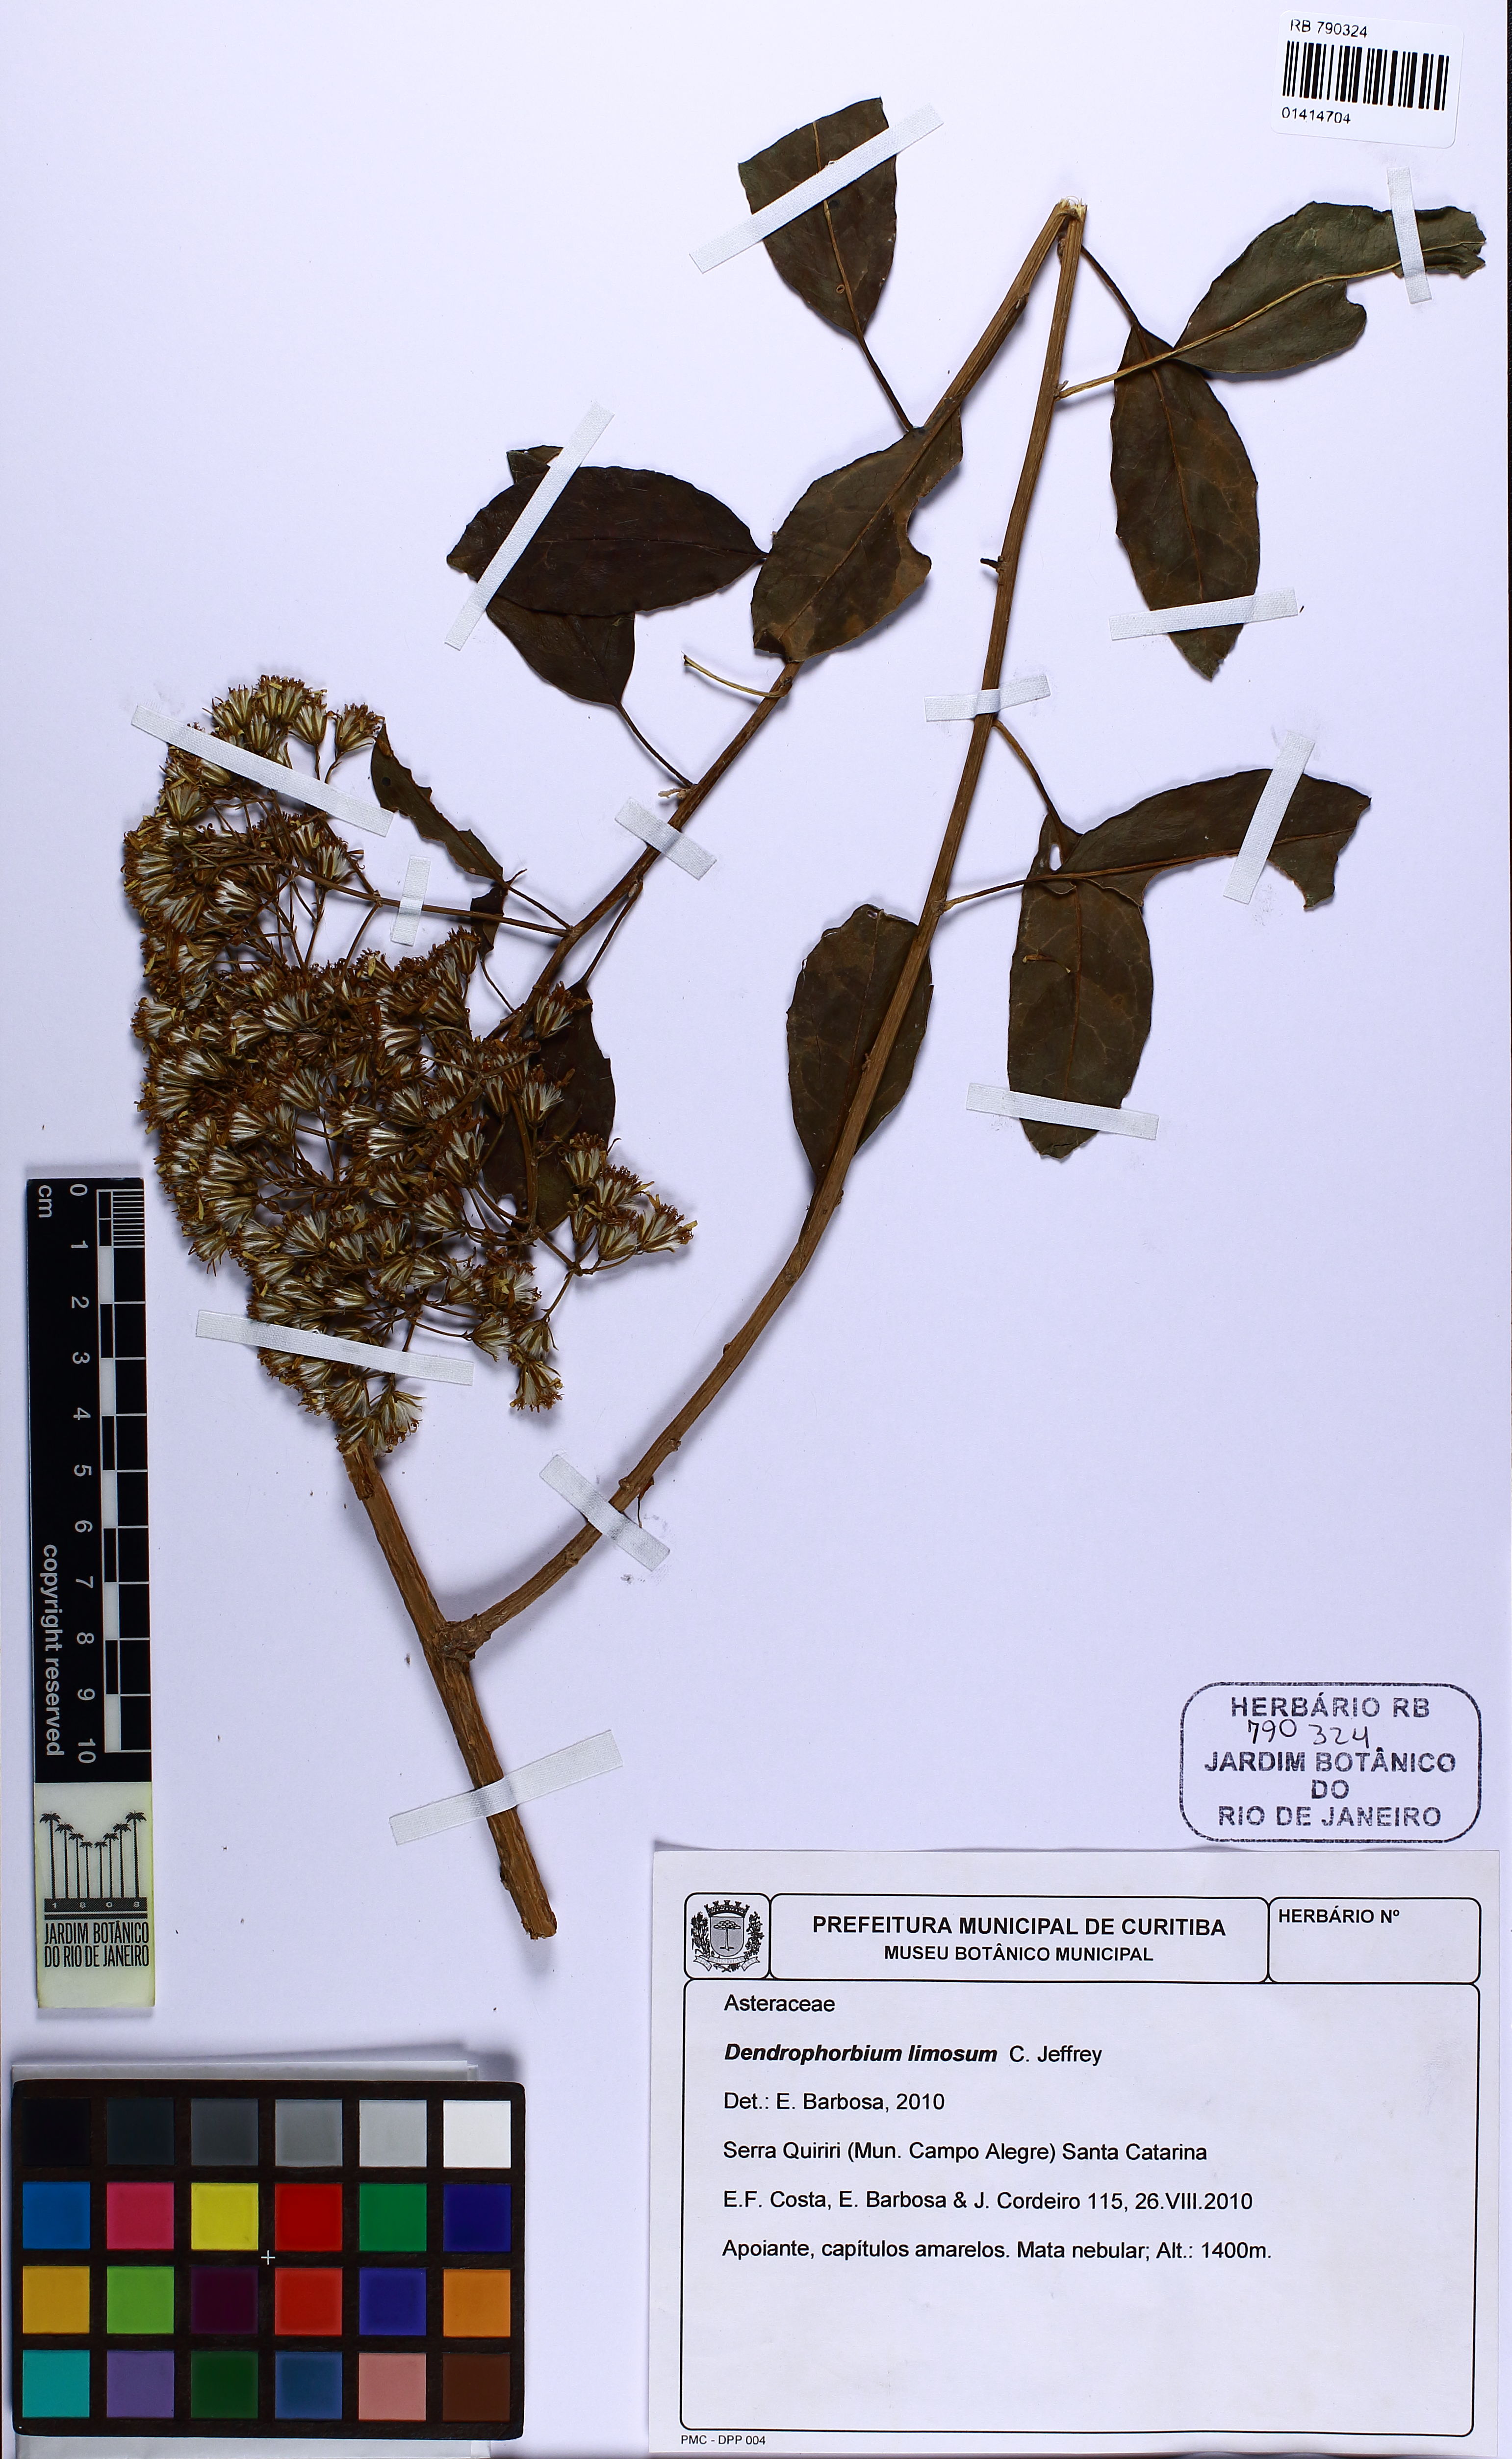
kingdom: Plantae
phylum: Tracheophyta
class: Magnoliopsida
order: Asterales
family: Asteraceae
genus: Dendrophorbium
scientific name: Dendrophorbium limosum
